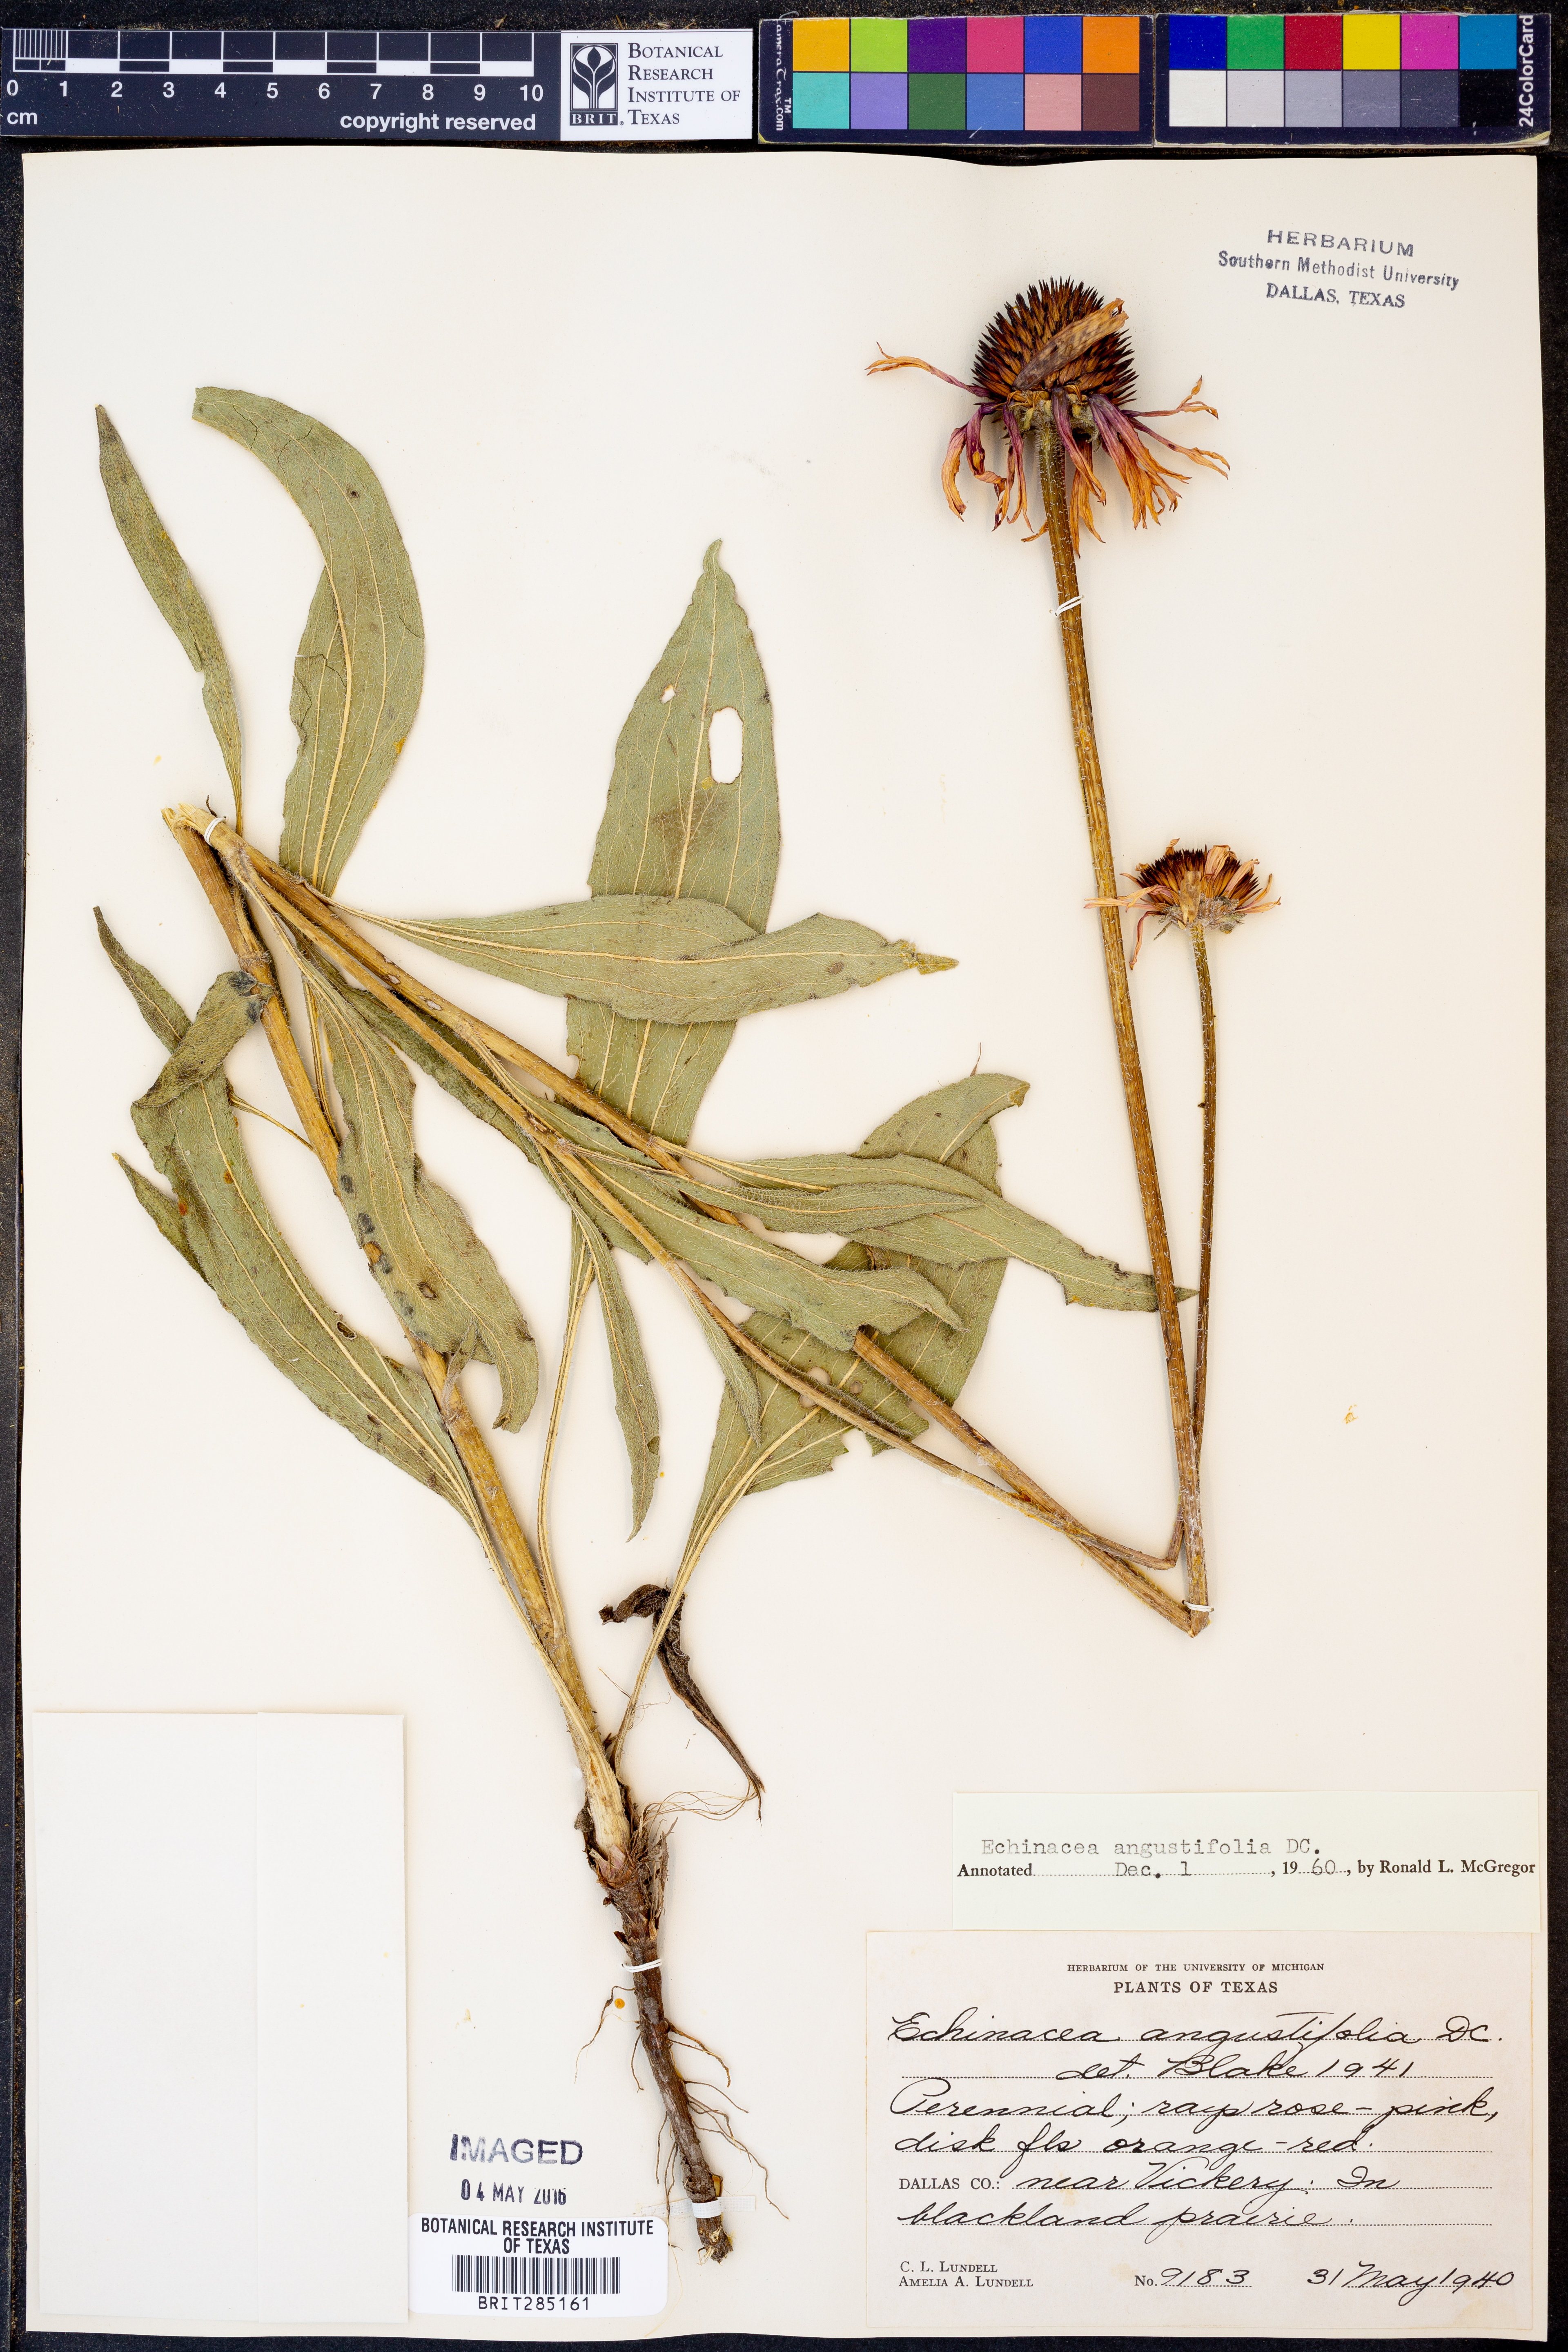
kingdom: Plantae
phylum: Tracheophyta
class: Magnoliopsida
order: Asterales
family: Asteraceae
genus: Echinacea
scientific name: Echinacea angustifolia
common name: Black-sampson echinacea
